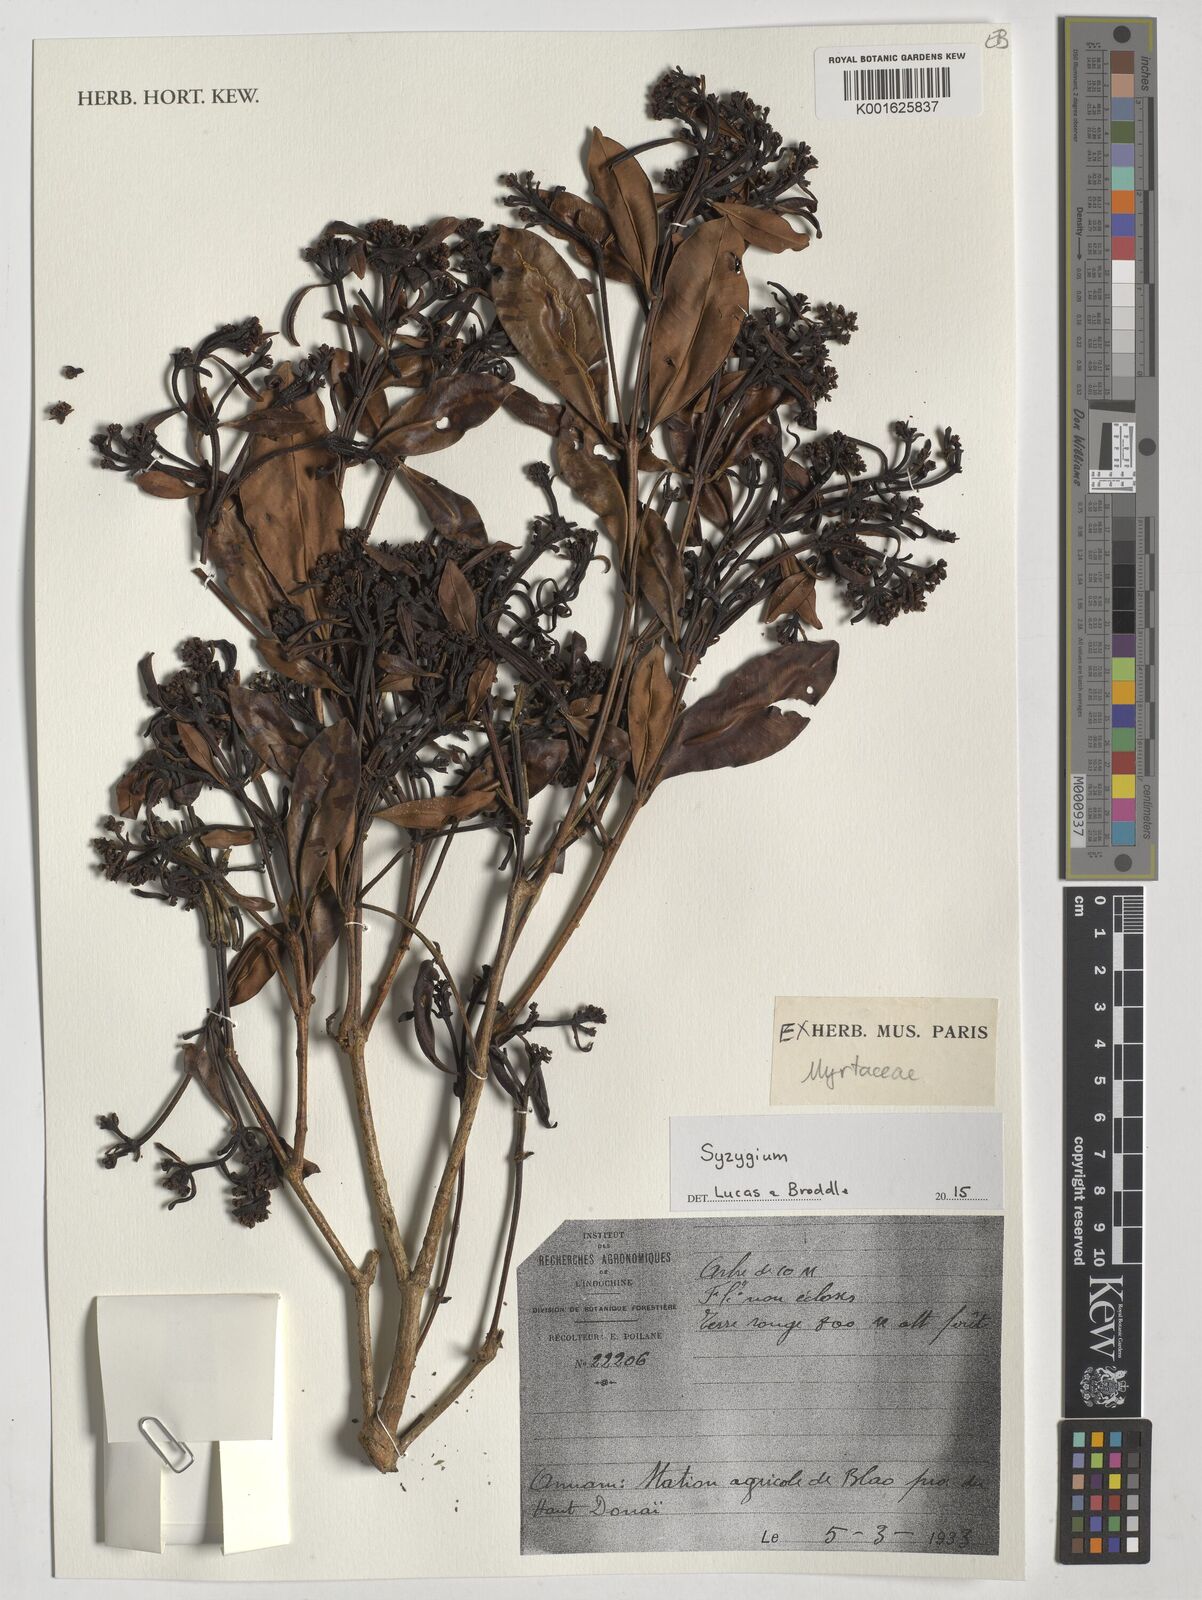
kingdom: Plantae
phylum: Tracheophyta
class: Magnoliopsida
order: Myrtales
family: Myrtaceae
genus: Syzygium
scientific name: Syzygium
